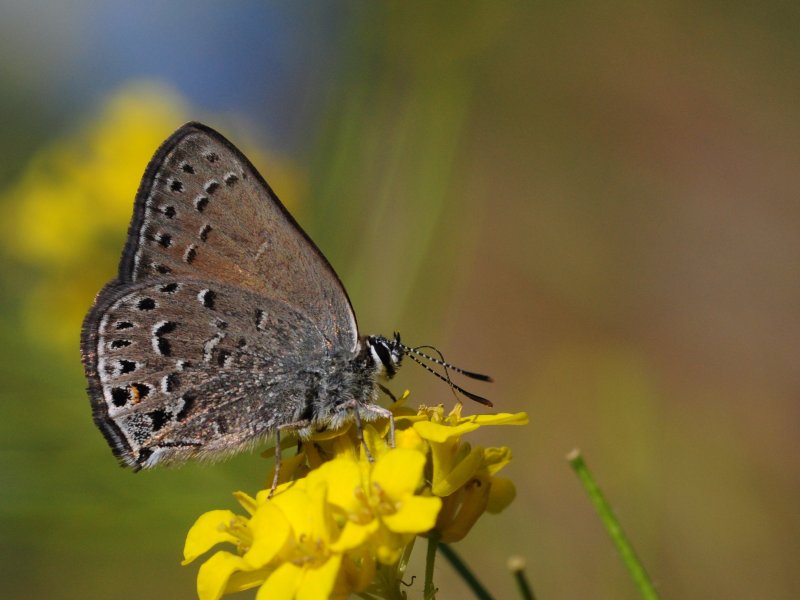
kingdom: Animalia
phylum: Arthropoda
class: Insecta
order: Lepidoptera
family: Lycaenidae
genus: Satyrium
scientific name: Satyrium behrii
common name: Behr's Hairstreak
